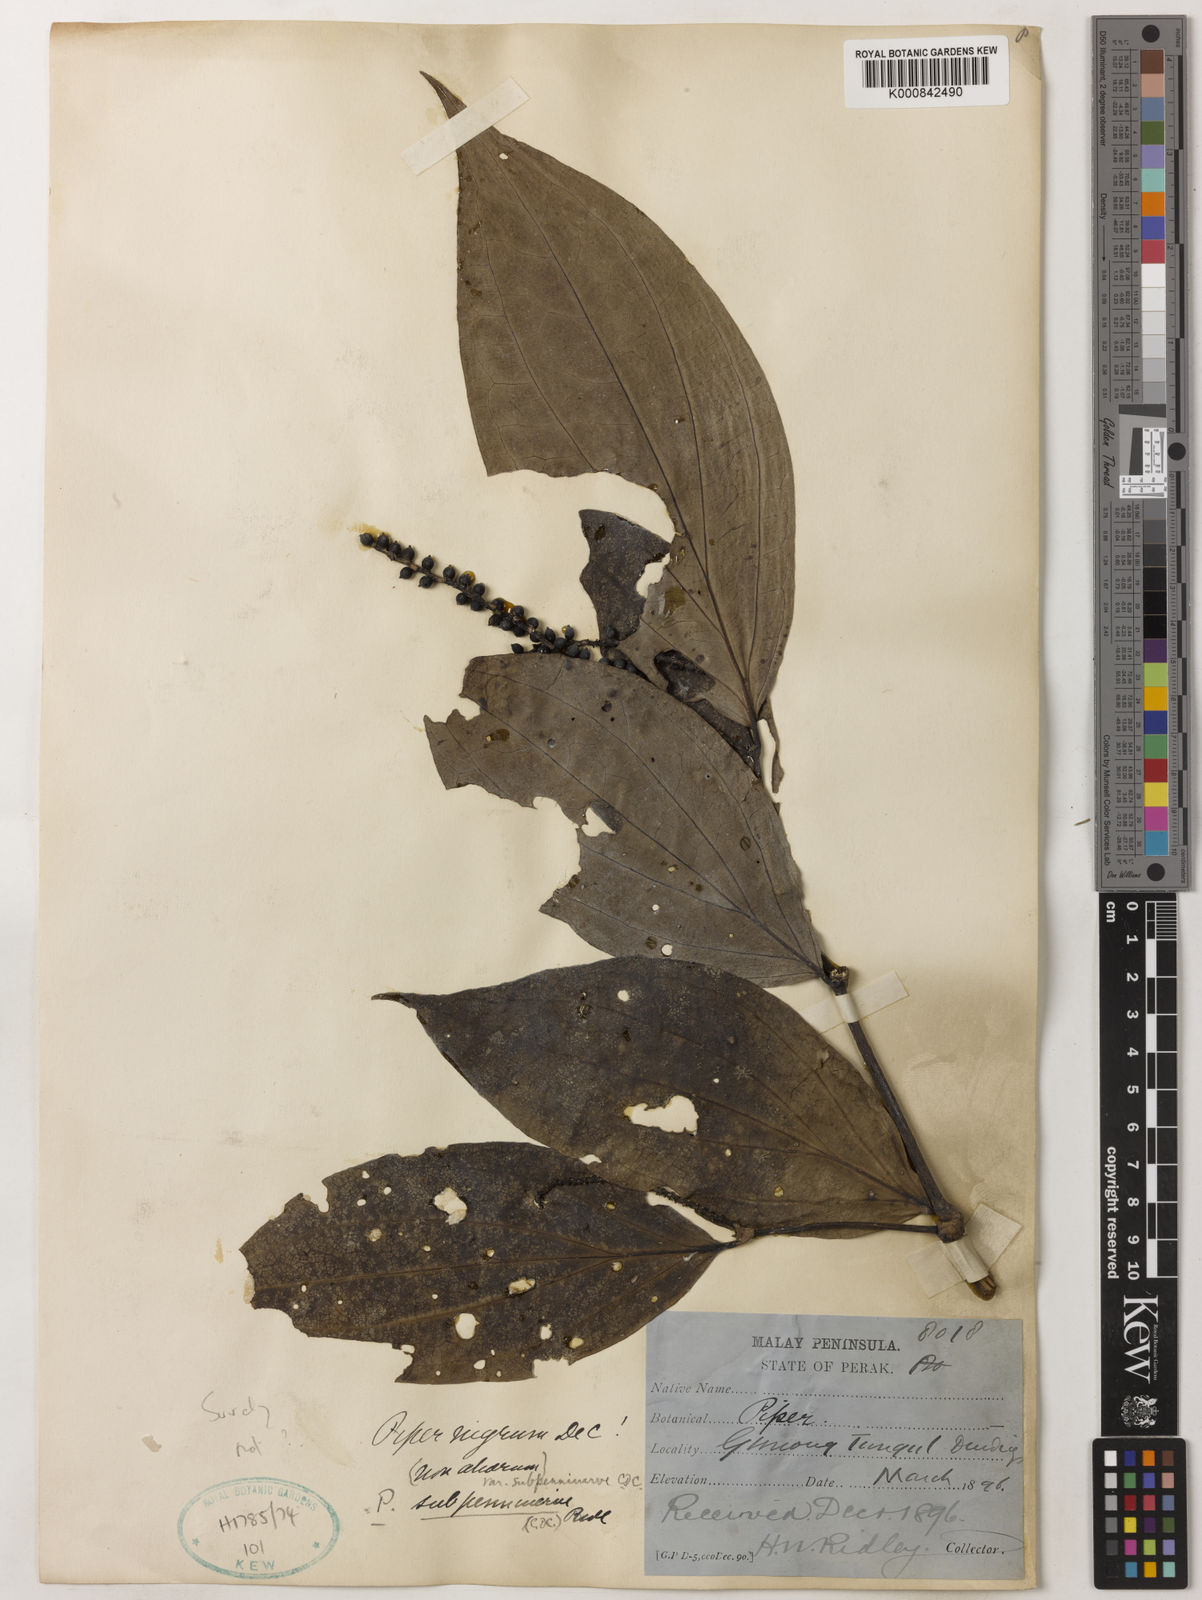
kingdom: Plantae
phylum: Tracheophyta
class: Magnoliopsida
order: Piperales
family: Piperaceae
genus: Piper
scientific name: Piper nigrum
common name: Black pepper
